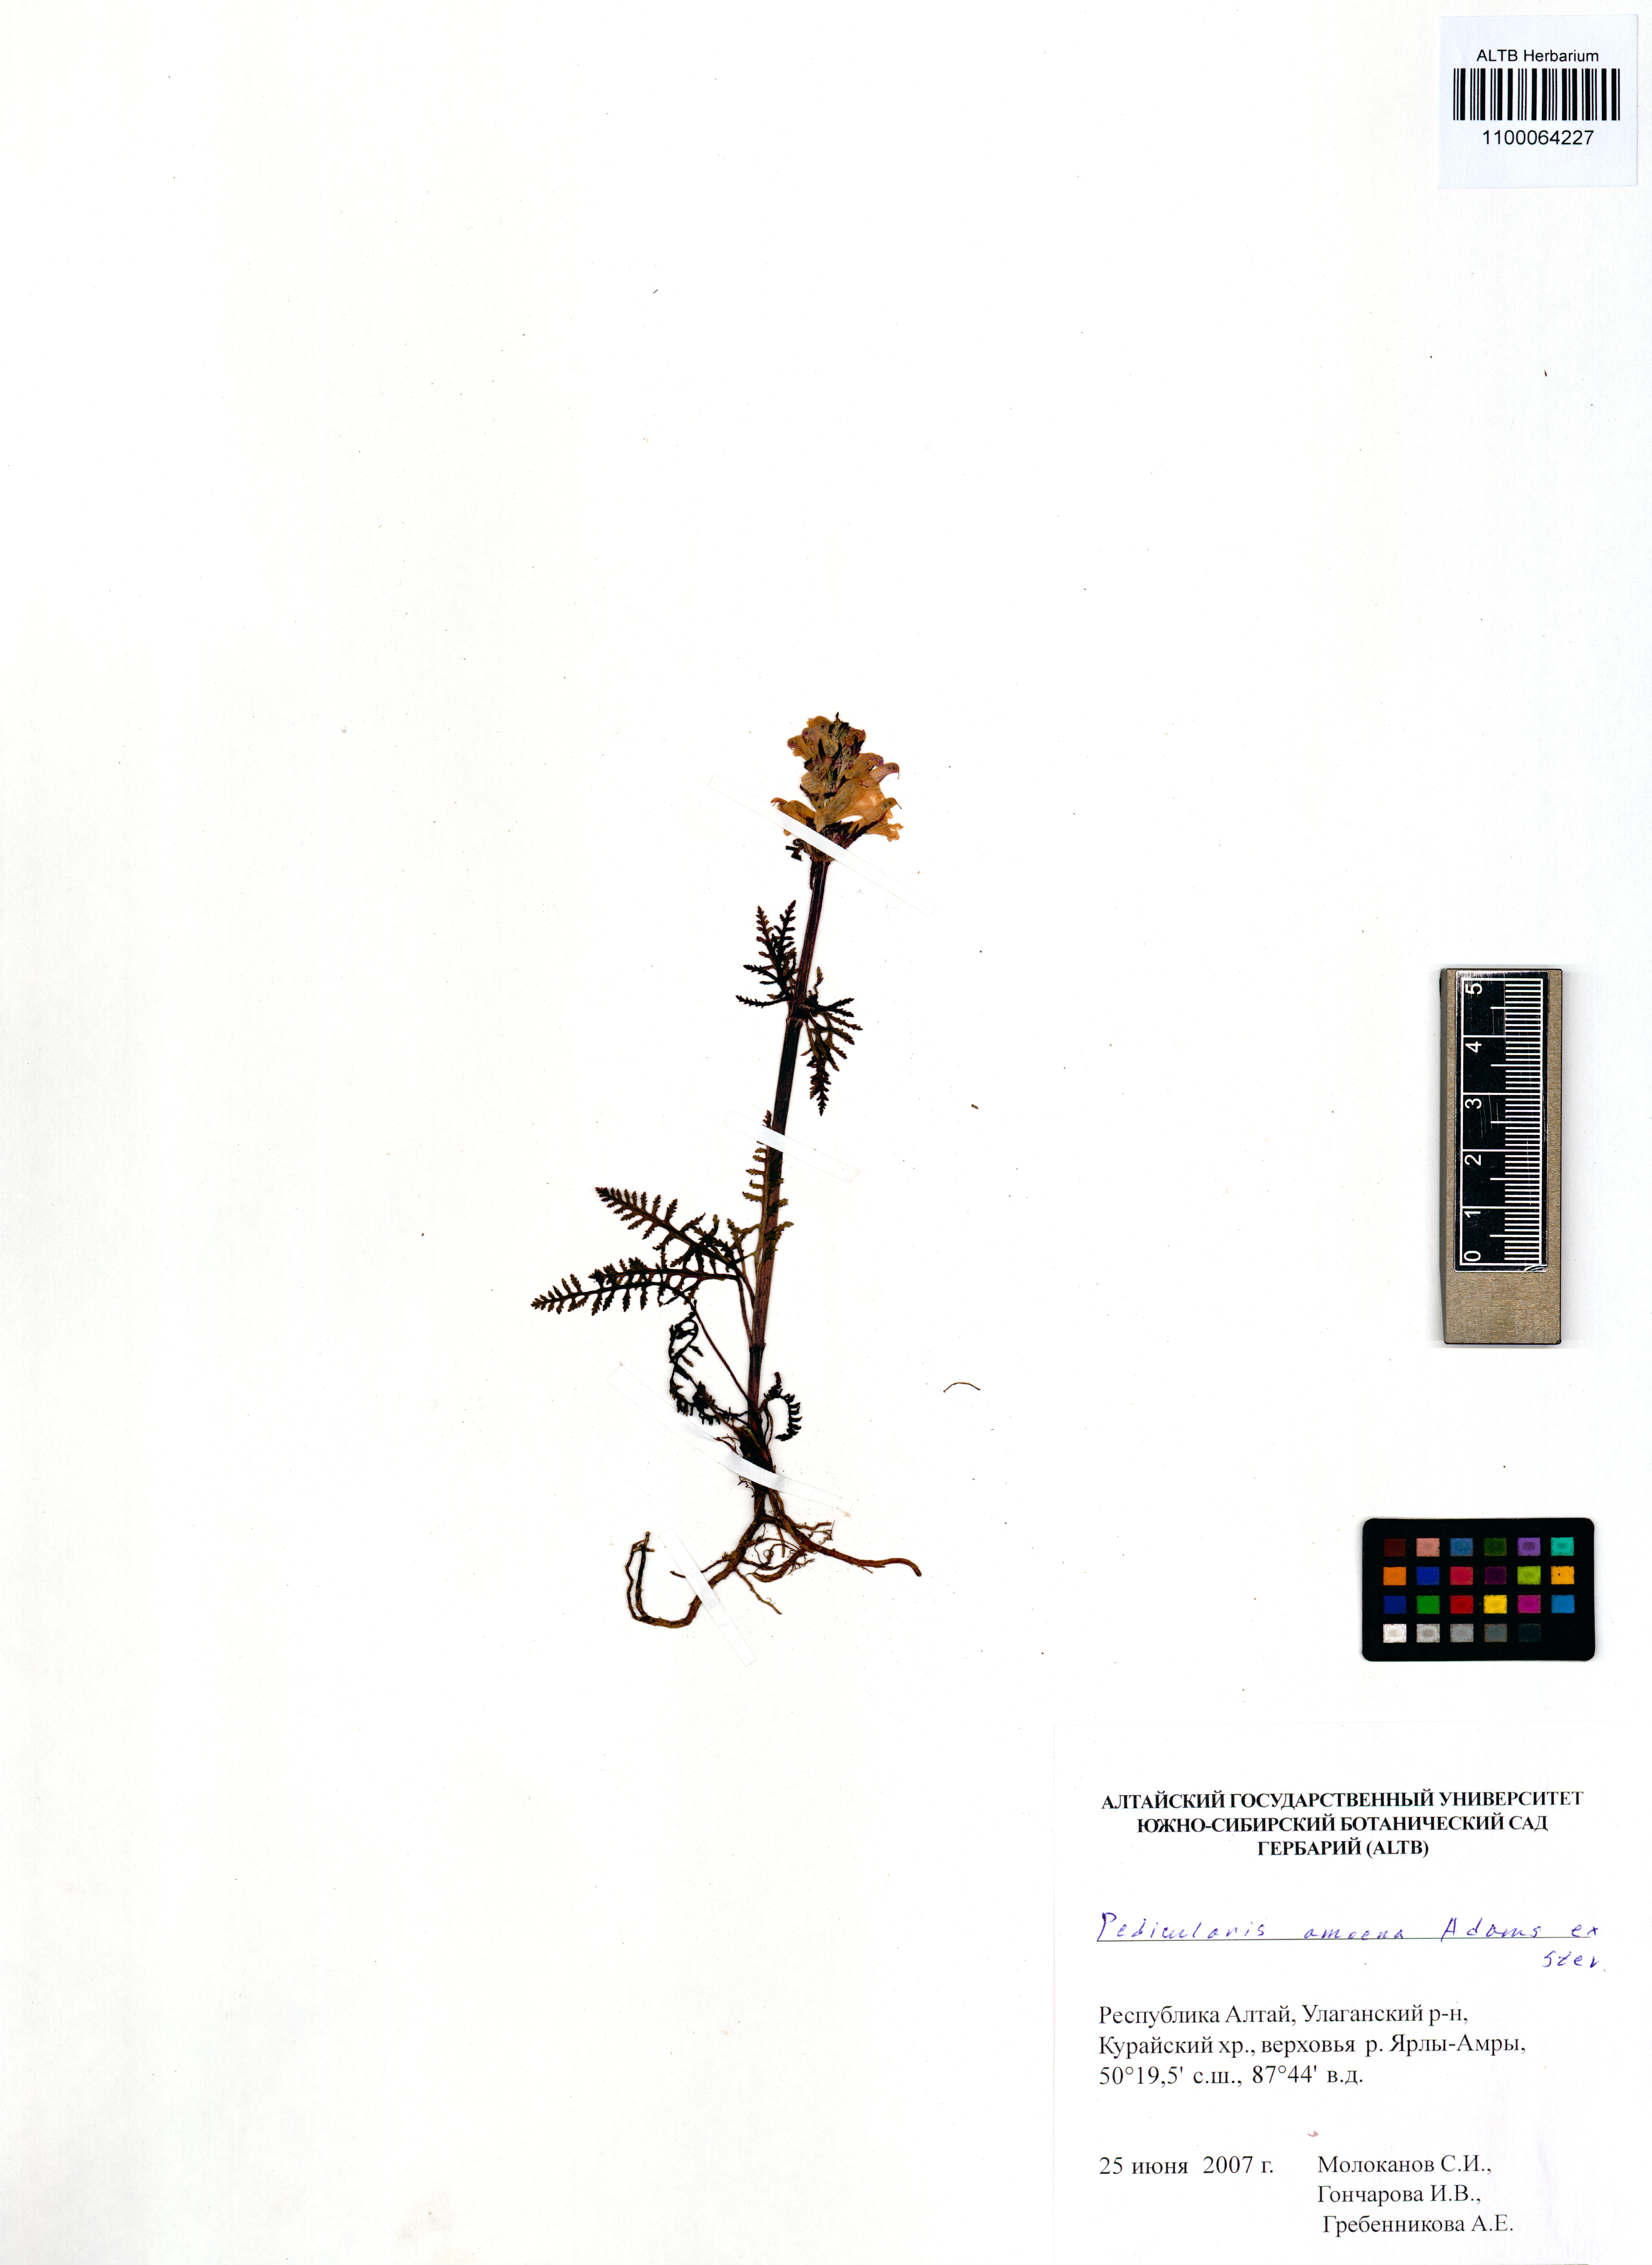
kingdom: Plantae
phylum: Tracheophyta
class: Magnoliopsida
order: Lamiales
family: Orobanchaceae
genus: Pedicularis
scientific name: Pedicularis amoena
